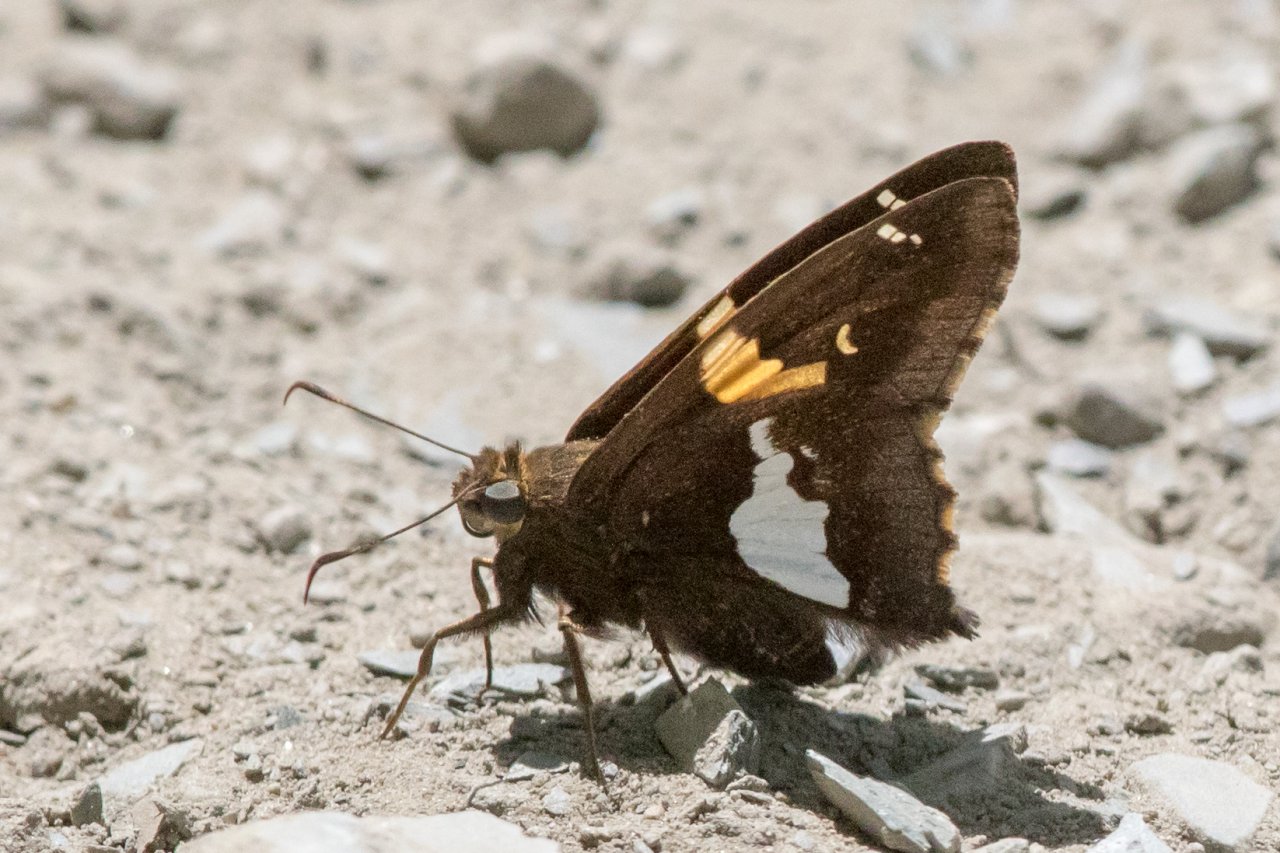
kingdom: Animalia
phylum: Arthropoda
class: Insecta
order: Lepidoptera
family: Hesperiidae
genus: Epargyreus
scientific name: Epargyreus clarus
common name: Silver-spotted Skipper
